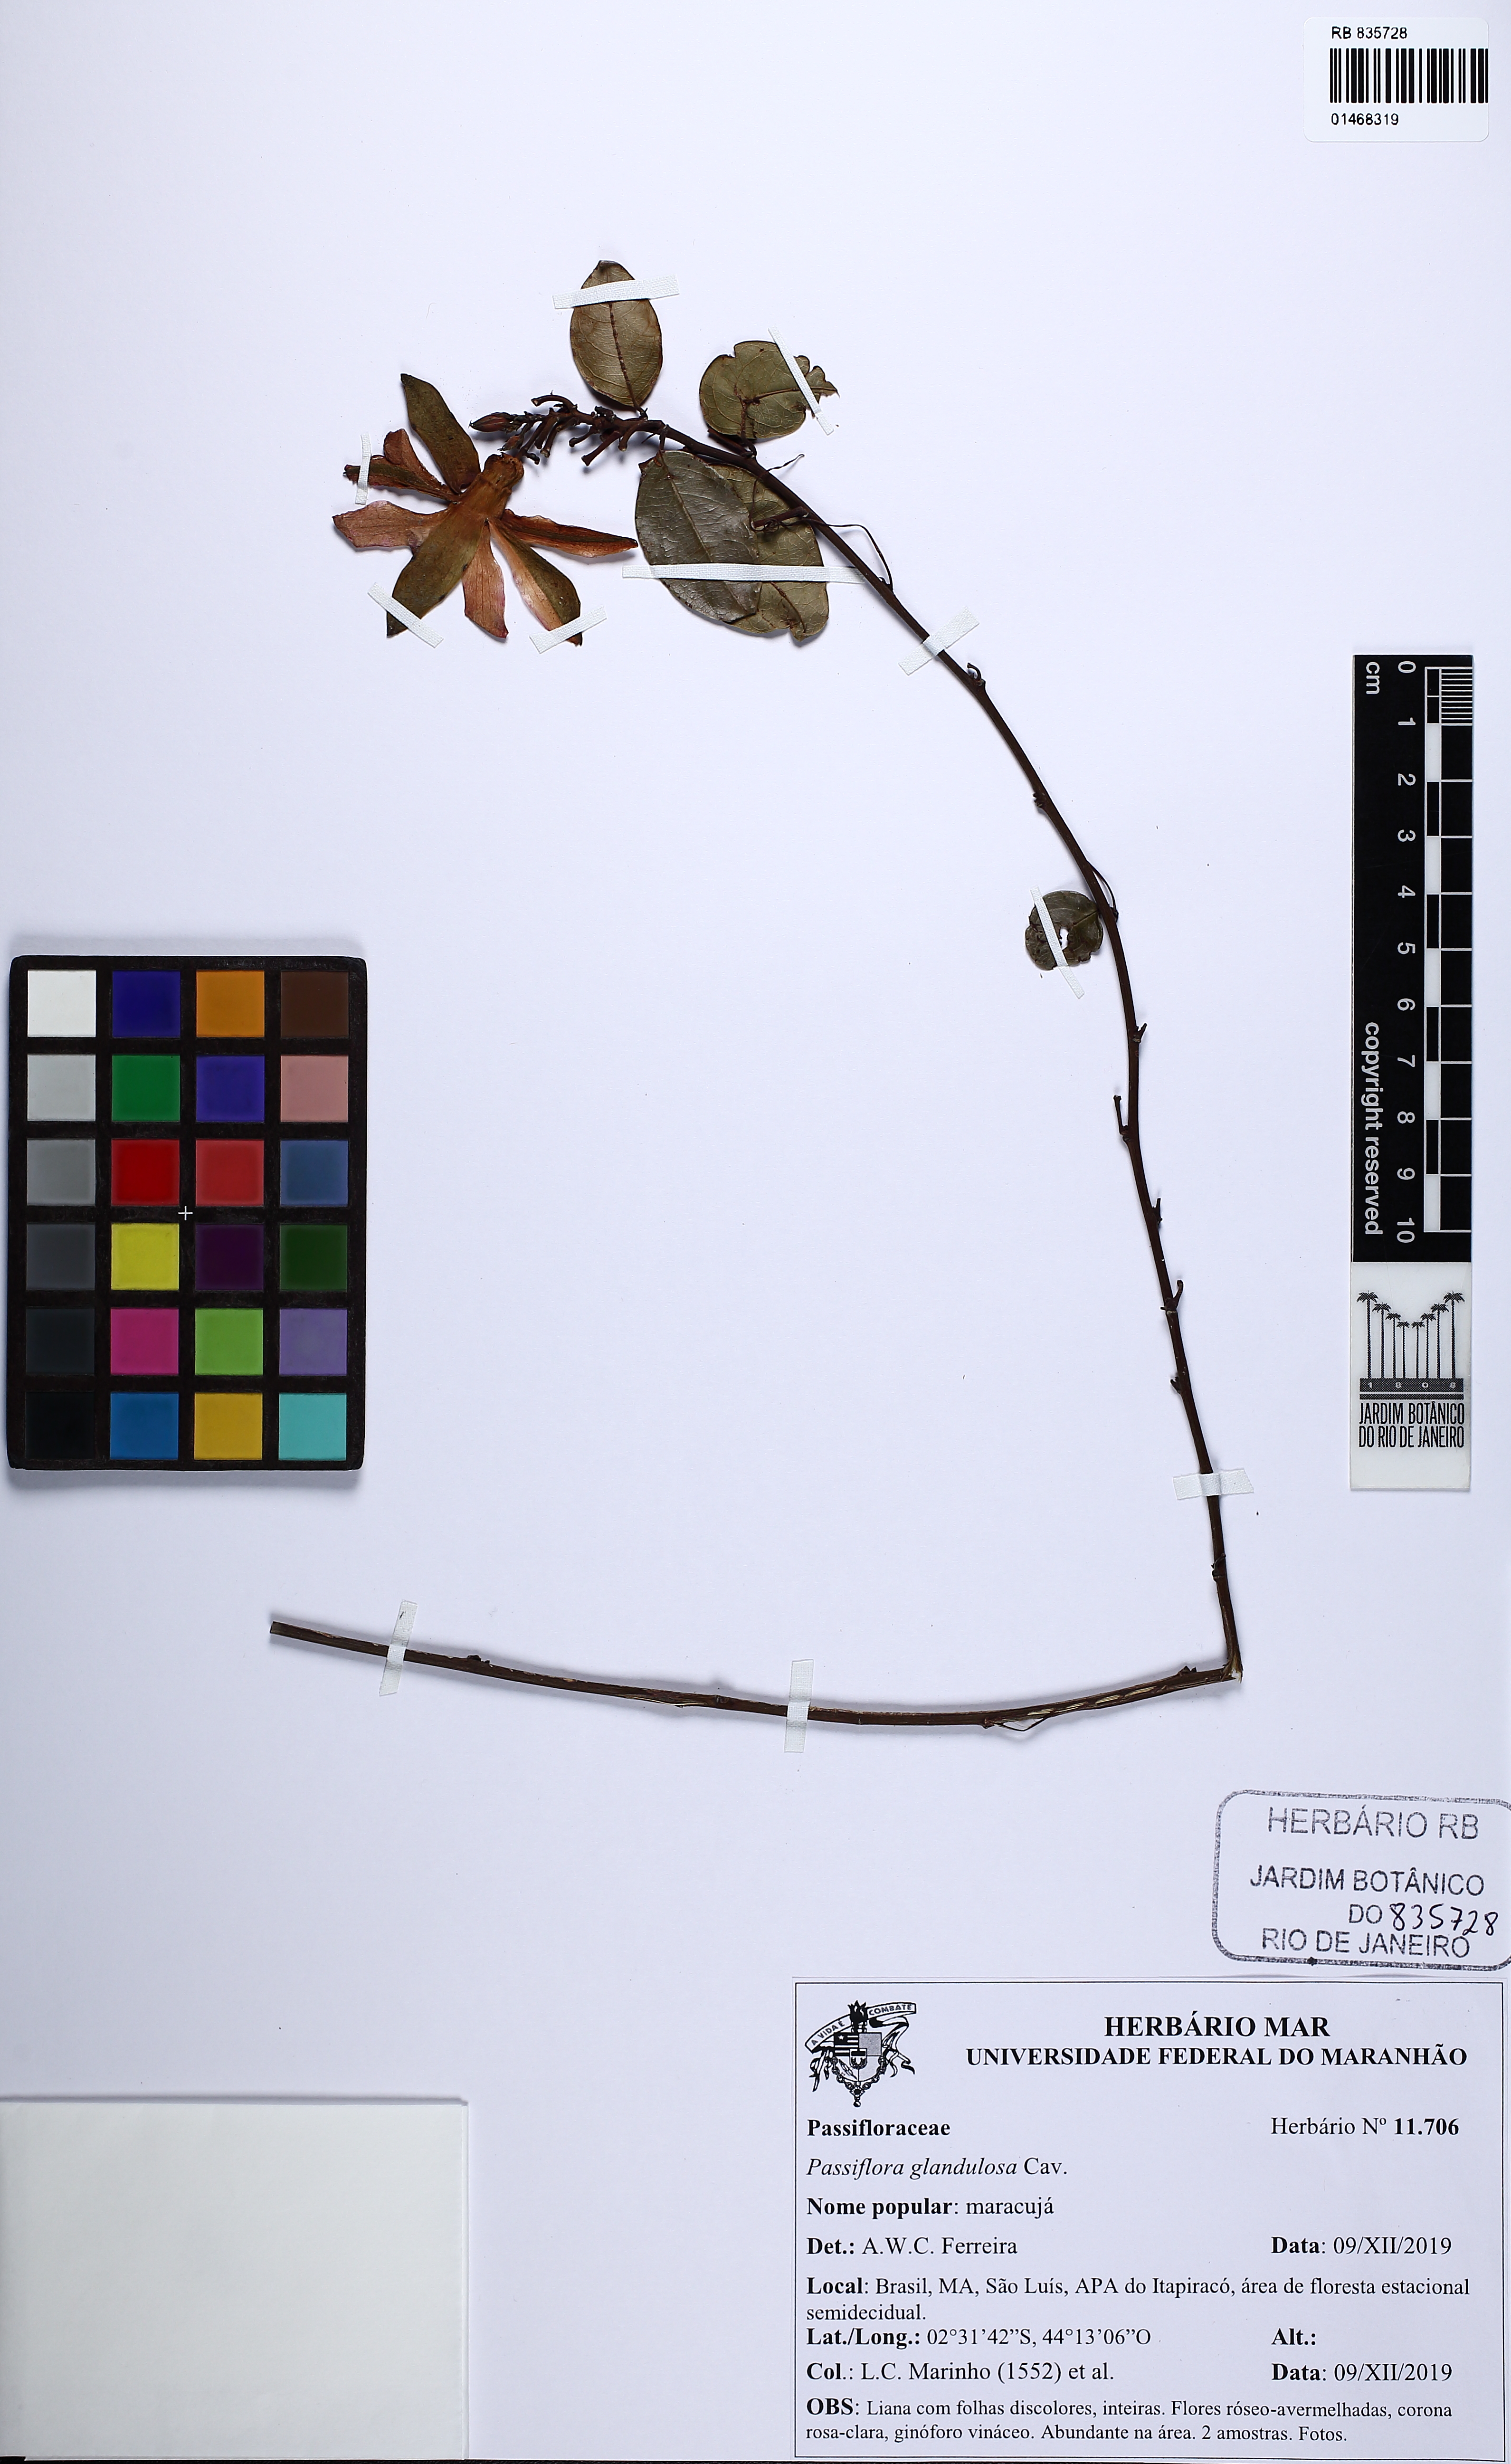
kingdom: Plantae
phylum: Tracheophyta
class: Magnoliopsida
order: Malpighiales
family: Passifloraceae
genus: Passiflora
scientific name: Passiflora glandulosa
